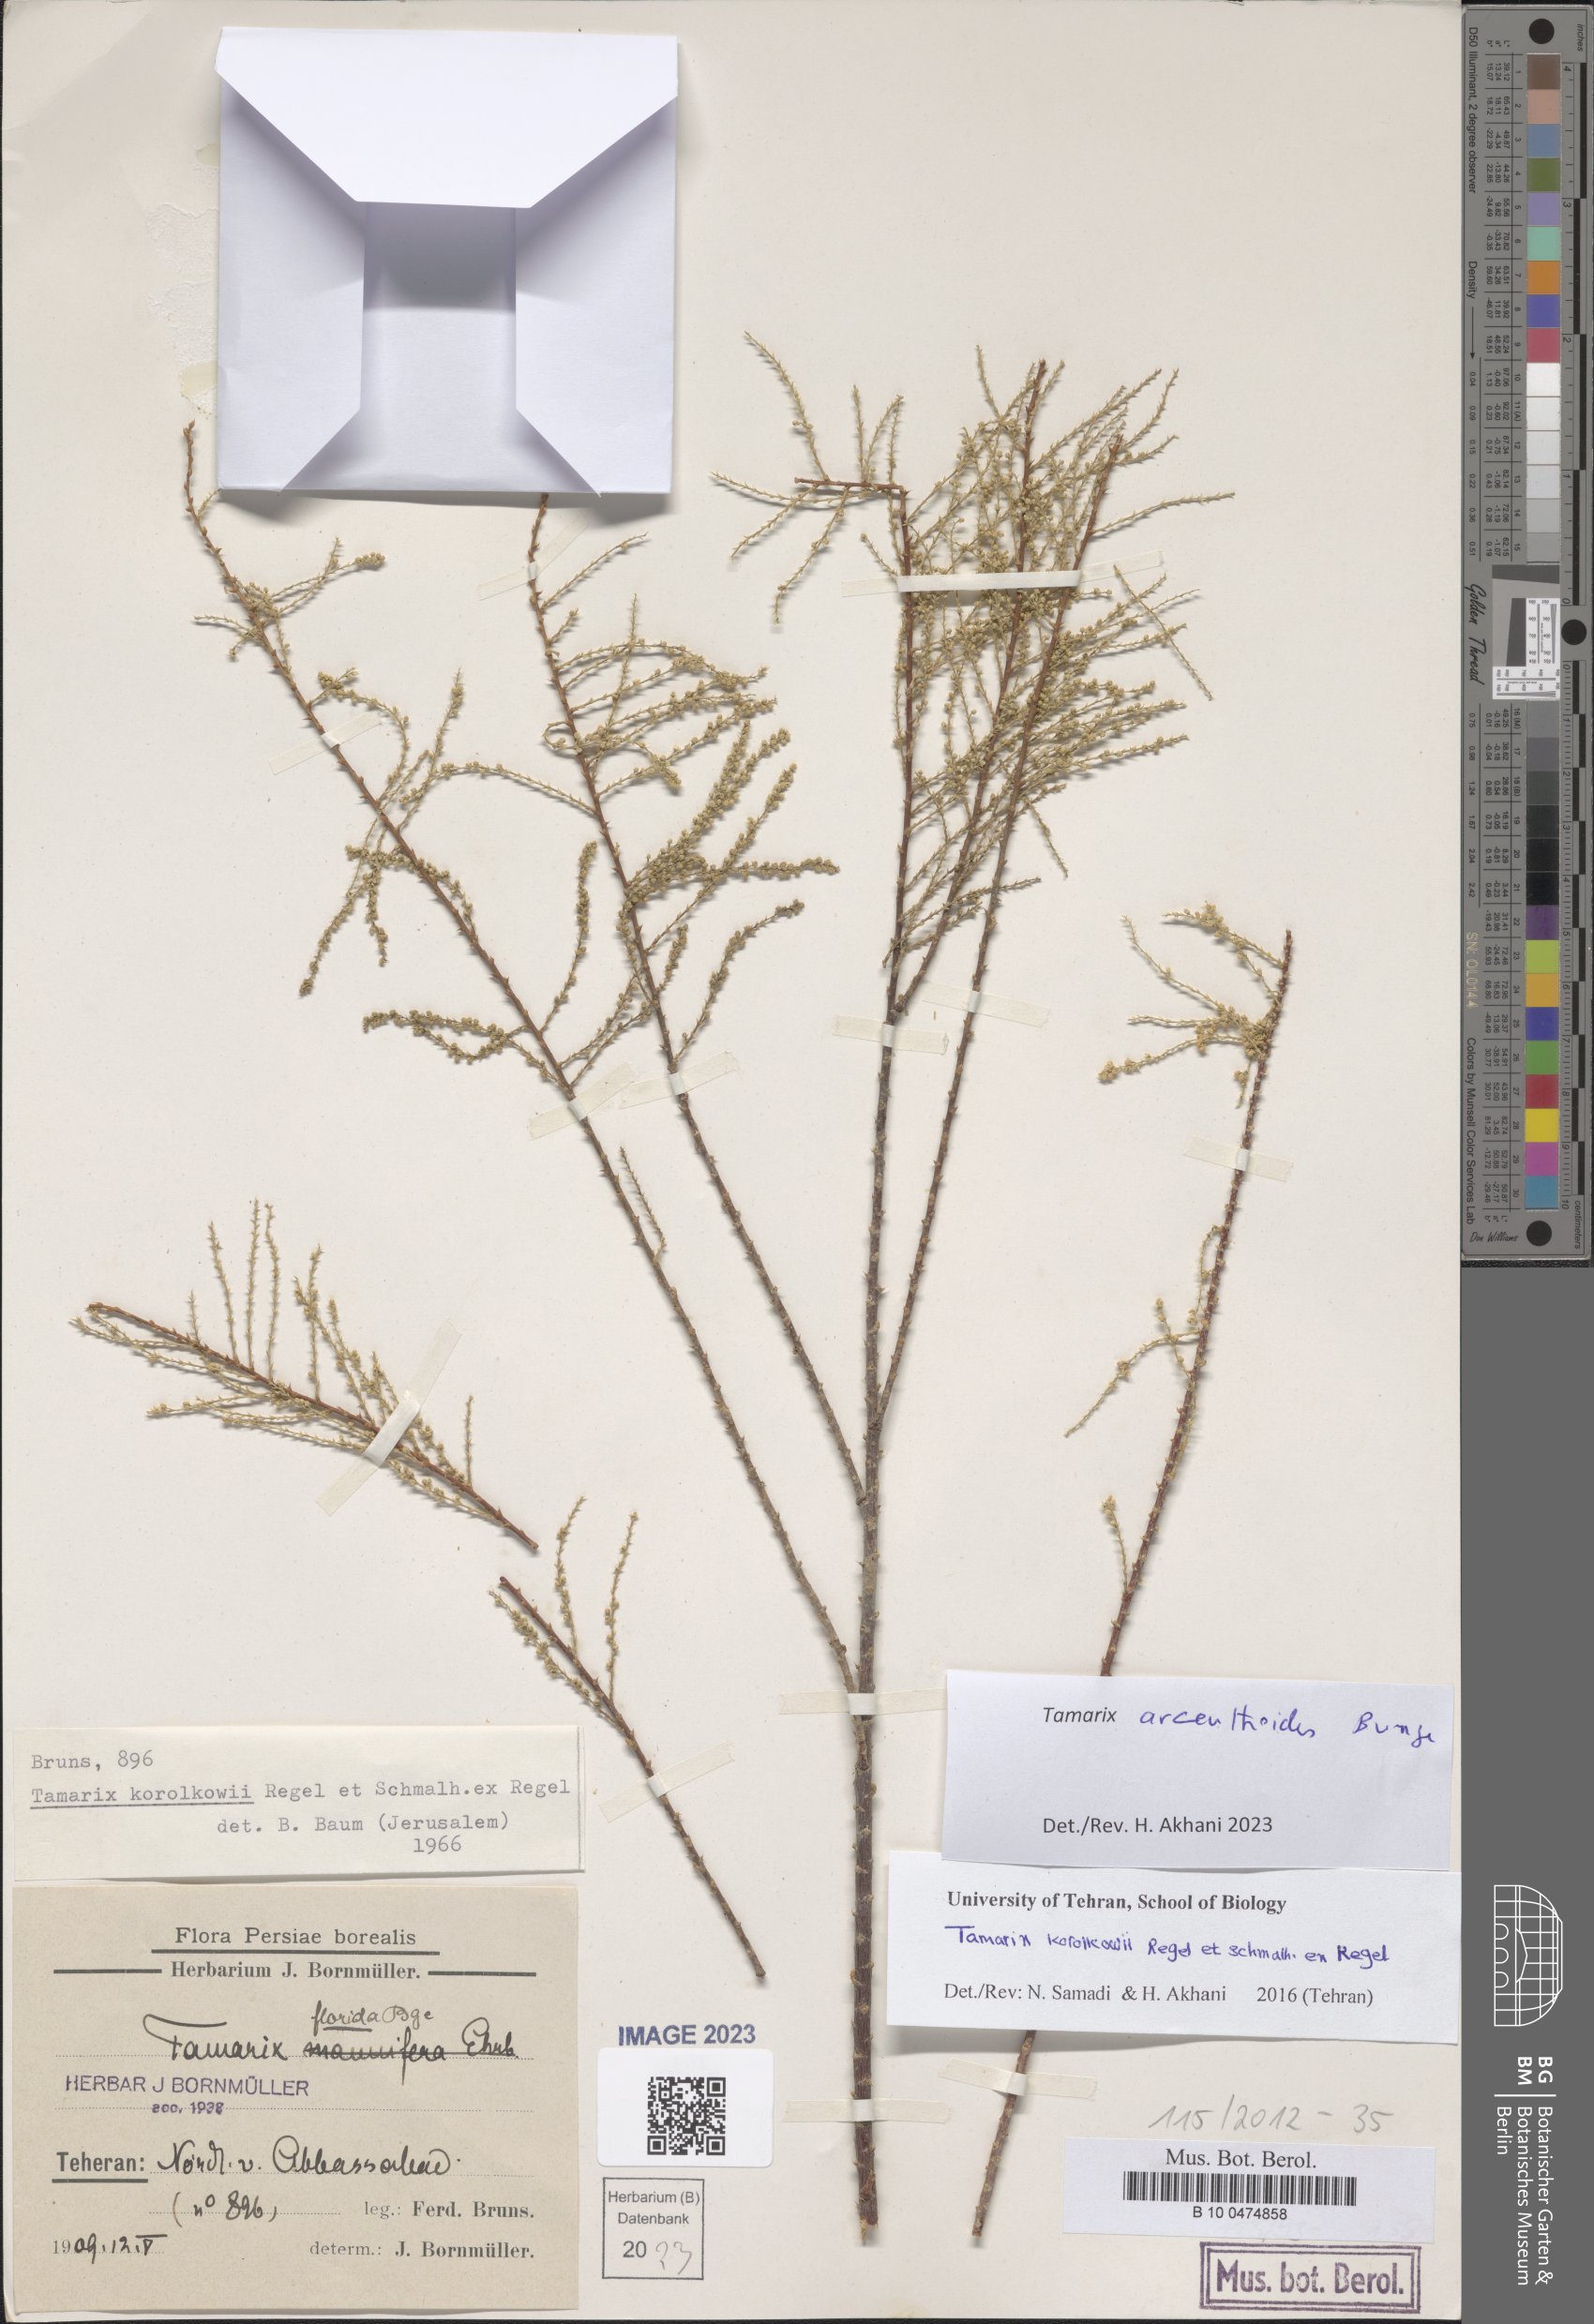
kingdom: Plantae
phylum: Tracheophyta
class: Magnoliopsida
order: Caryophyllales
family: Tamaricaceae
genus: Tamarix
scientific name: Tamarix arceuthoides
